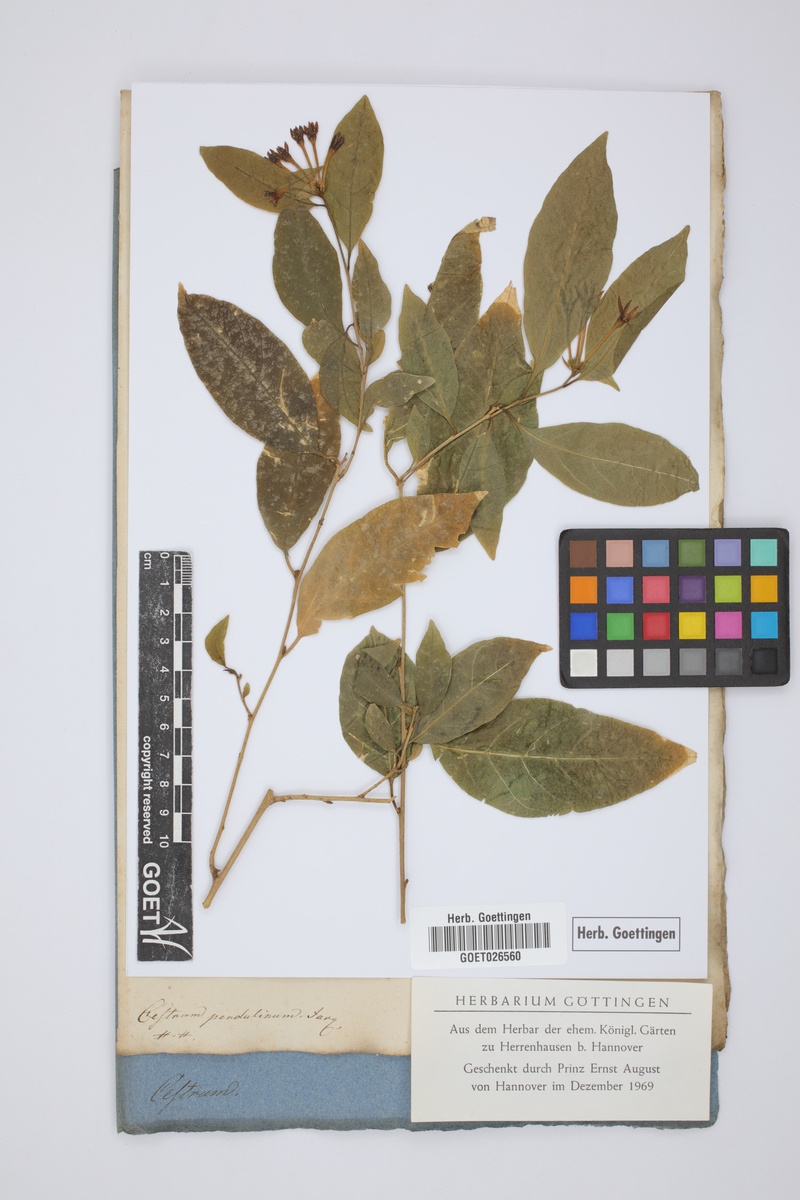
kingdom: Plantae
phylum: Tracheophyta
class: Magnoliopsida
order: Solanales
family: Solanaceae
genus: Cestrum
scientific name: Cestrum alternifolium
